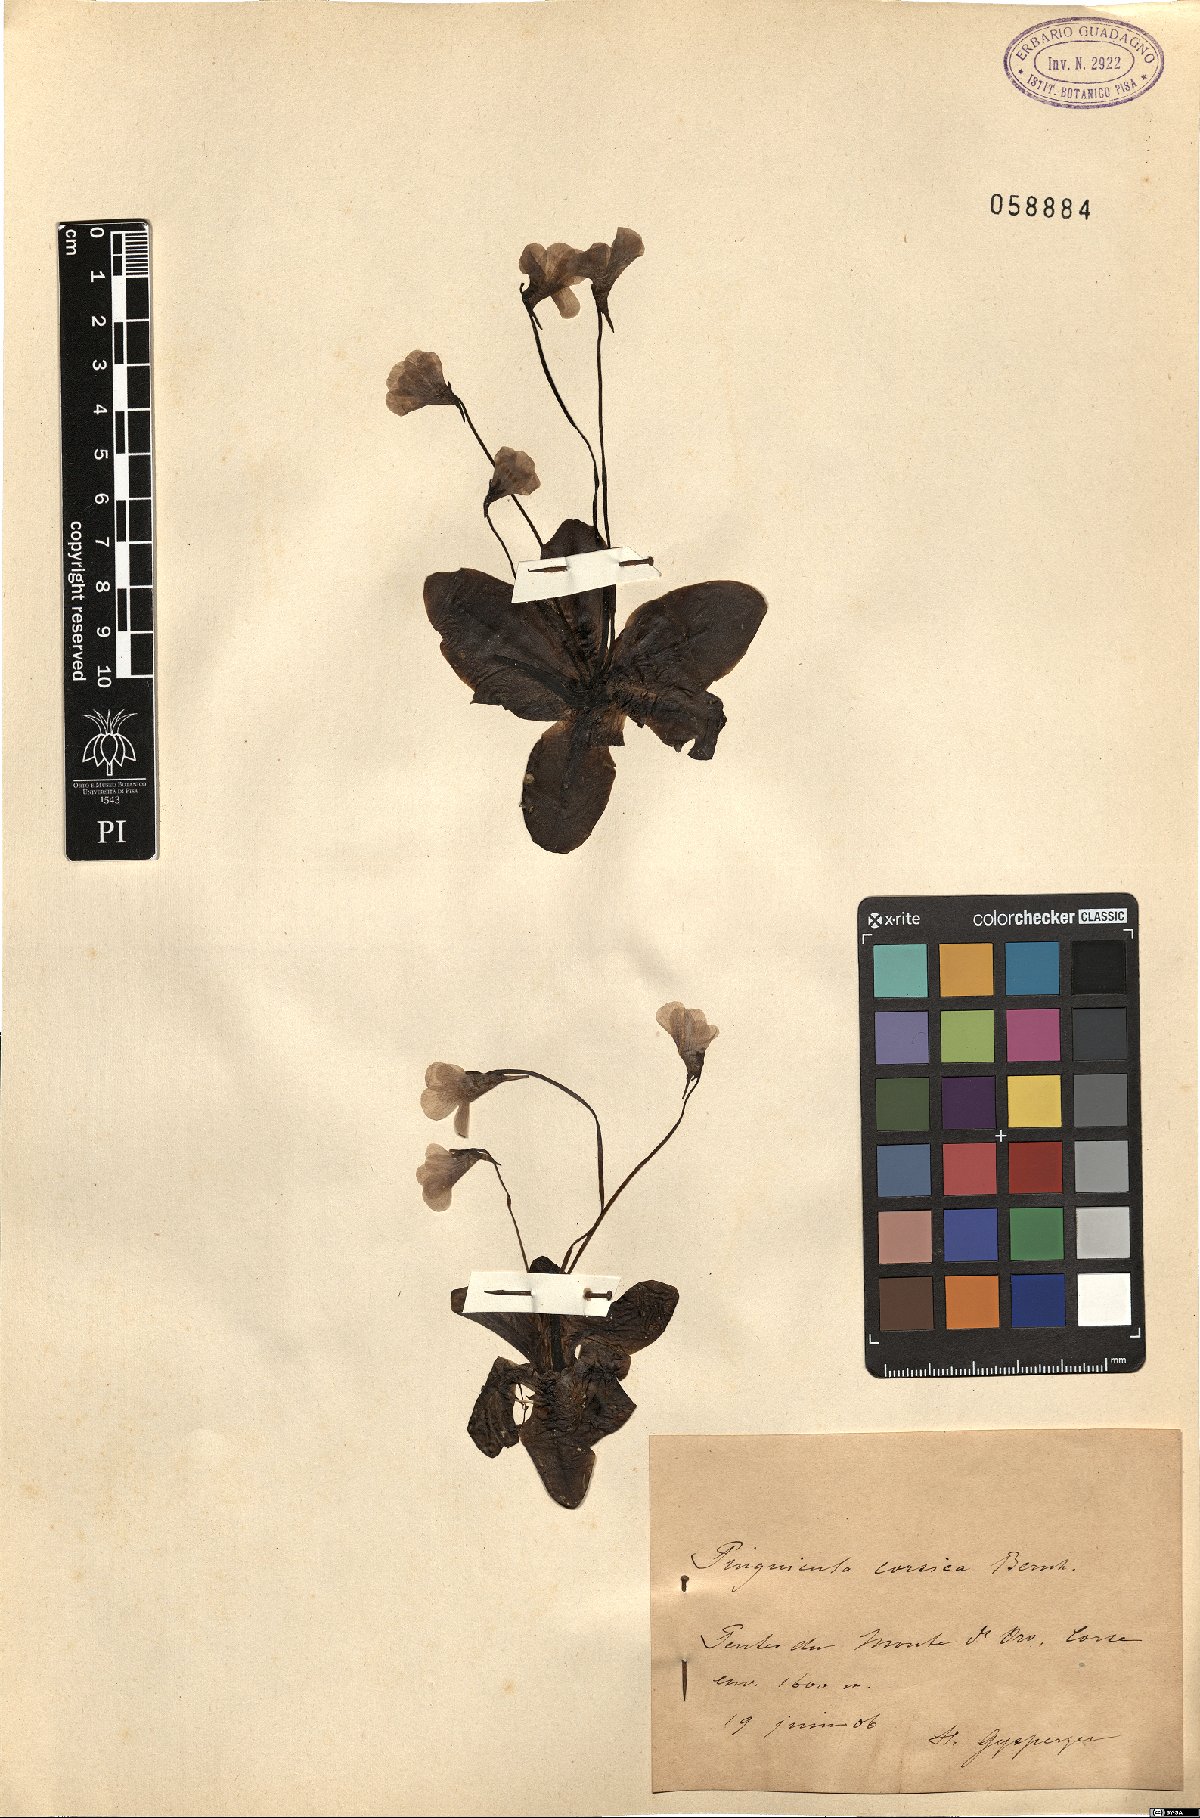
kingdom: Plantae
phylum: Tracheophyta
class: Magnoliopsida
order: Lamiales
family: Lentibulariaceae
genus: Pinguicula
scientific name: Pinguicula corsica
